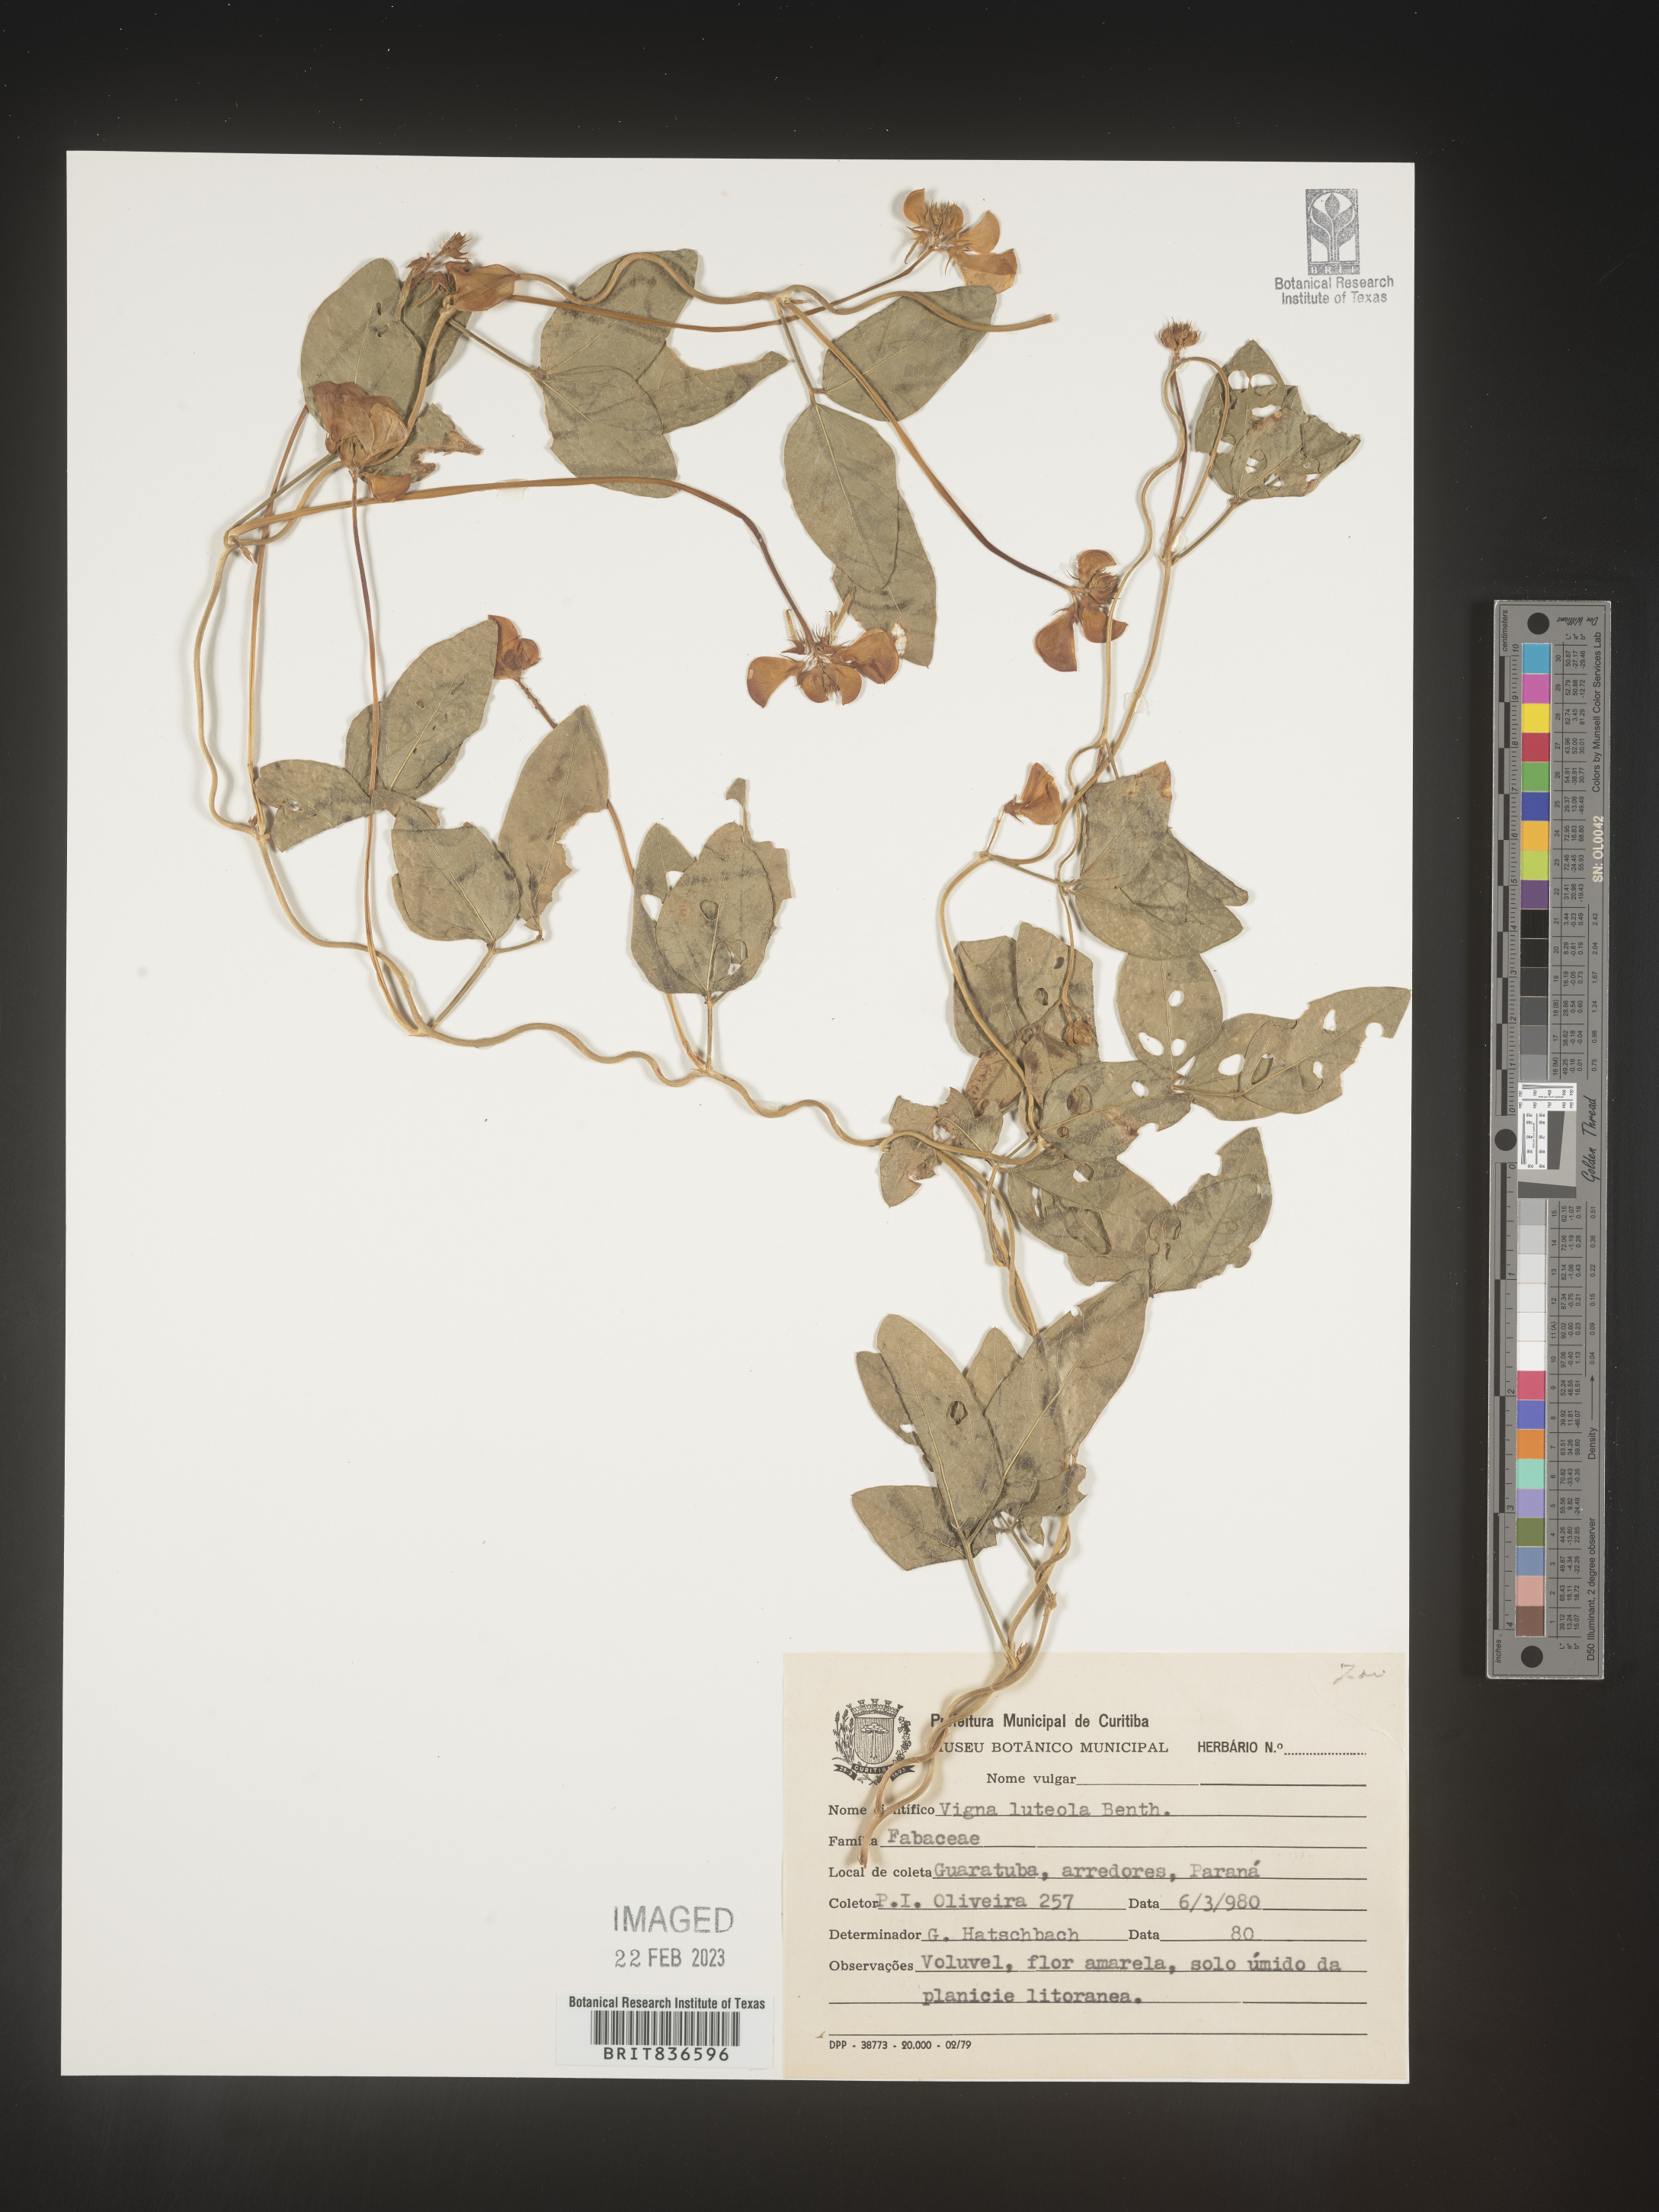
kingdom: Plantae
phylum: Tracheophyta
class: Magnoliopsida
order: Fabales
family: Fabaceae
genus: Vigna
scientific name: Vigna
